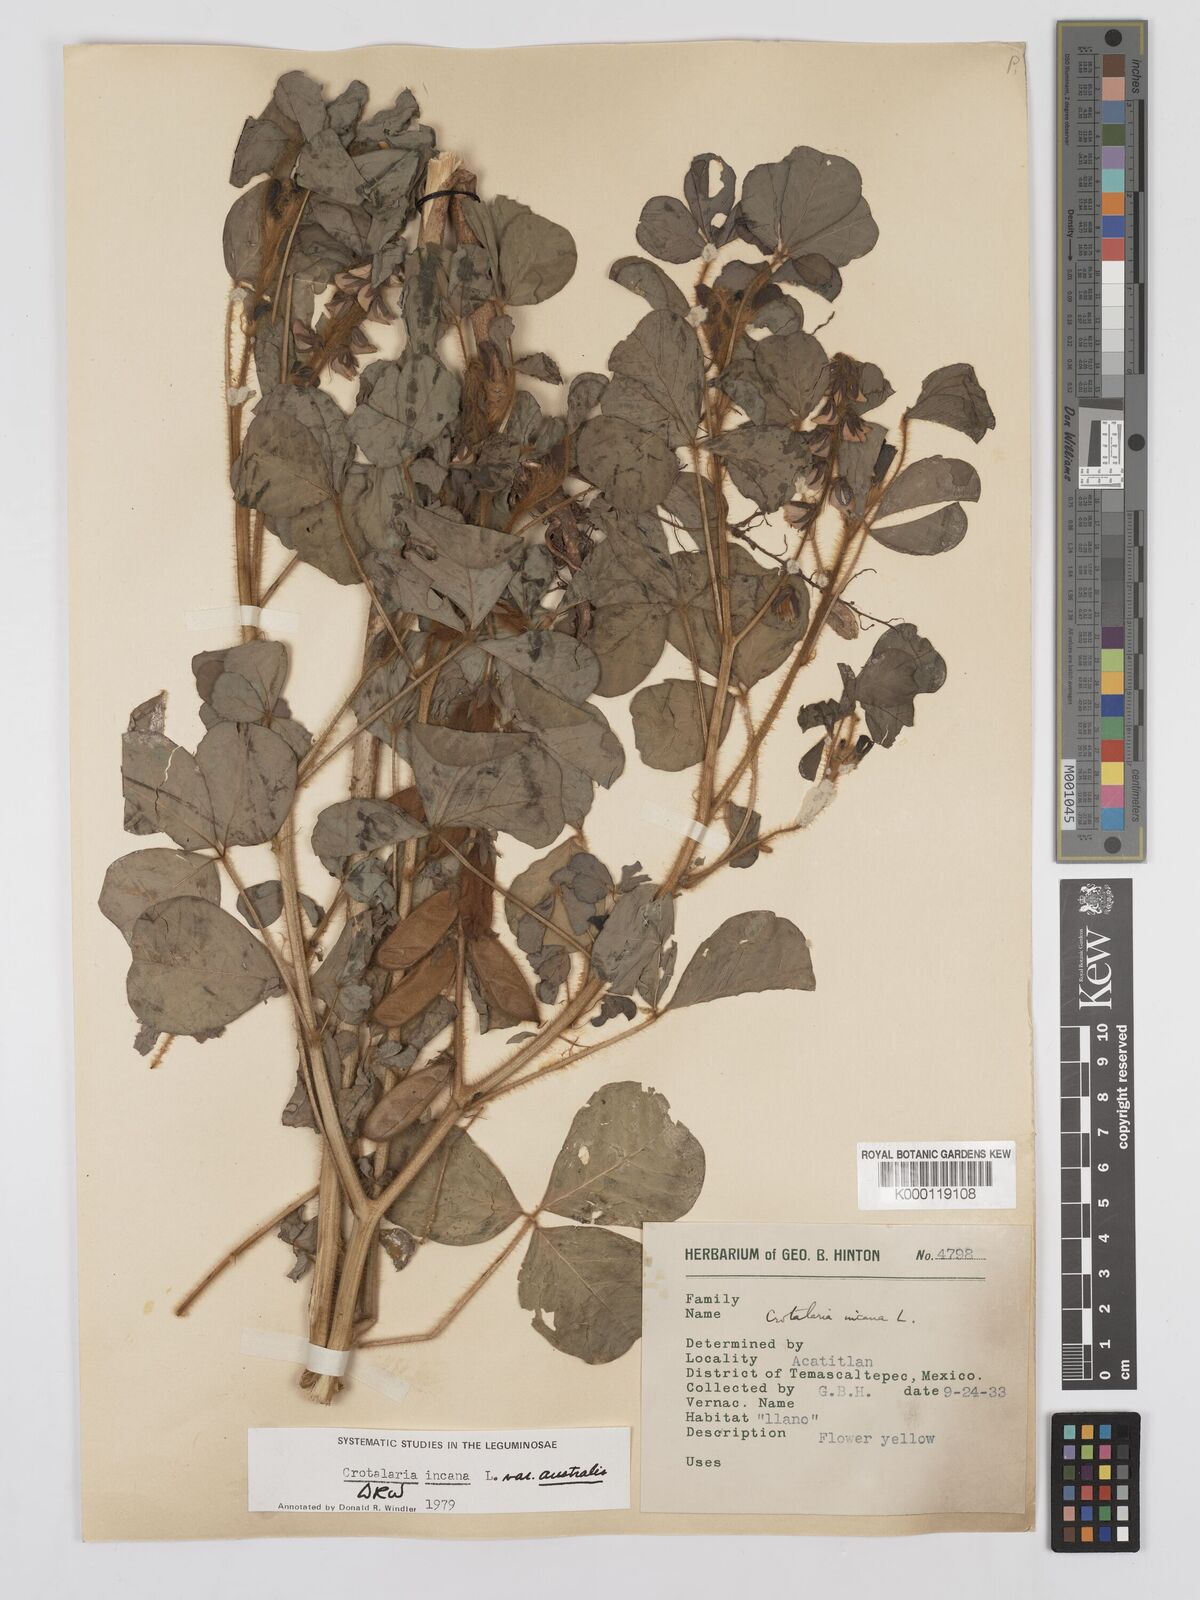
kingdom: Plantae
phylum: Tracheophyta
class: Magnoliopsida
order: Fabales
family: Fabaceae
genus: Crotalaria
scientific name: Crotalaria chaco-serranensis
